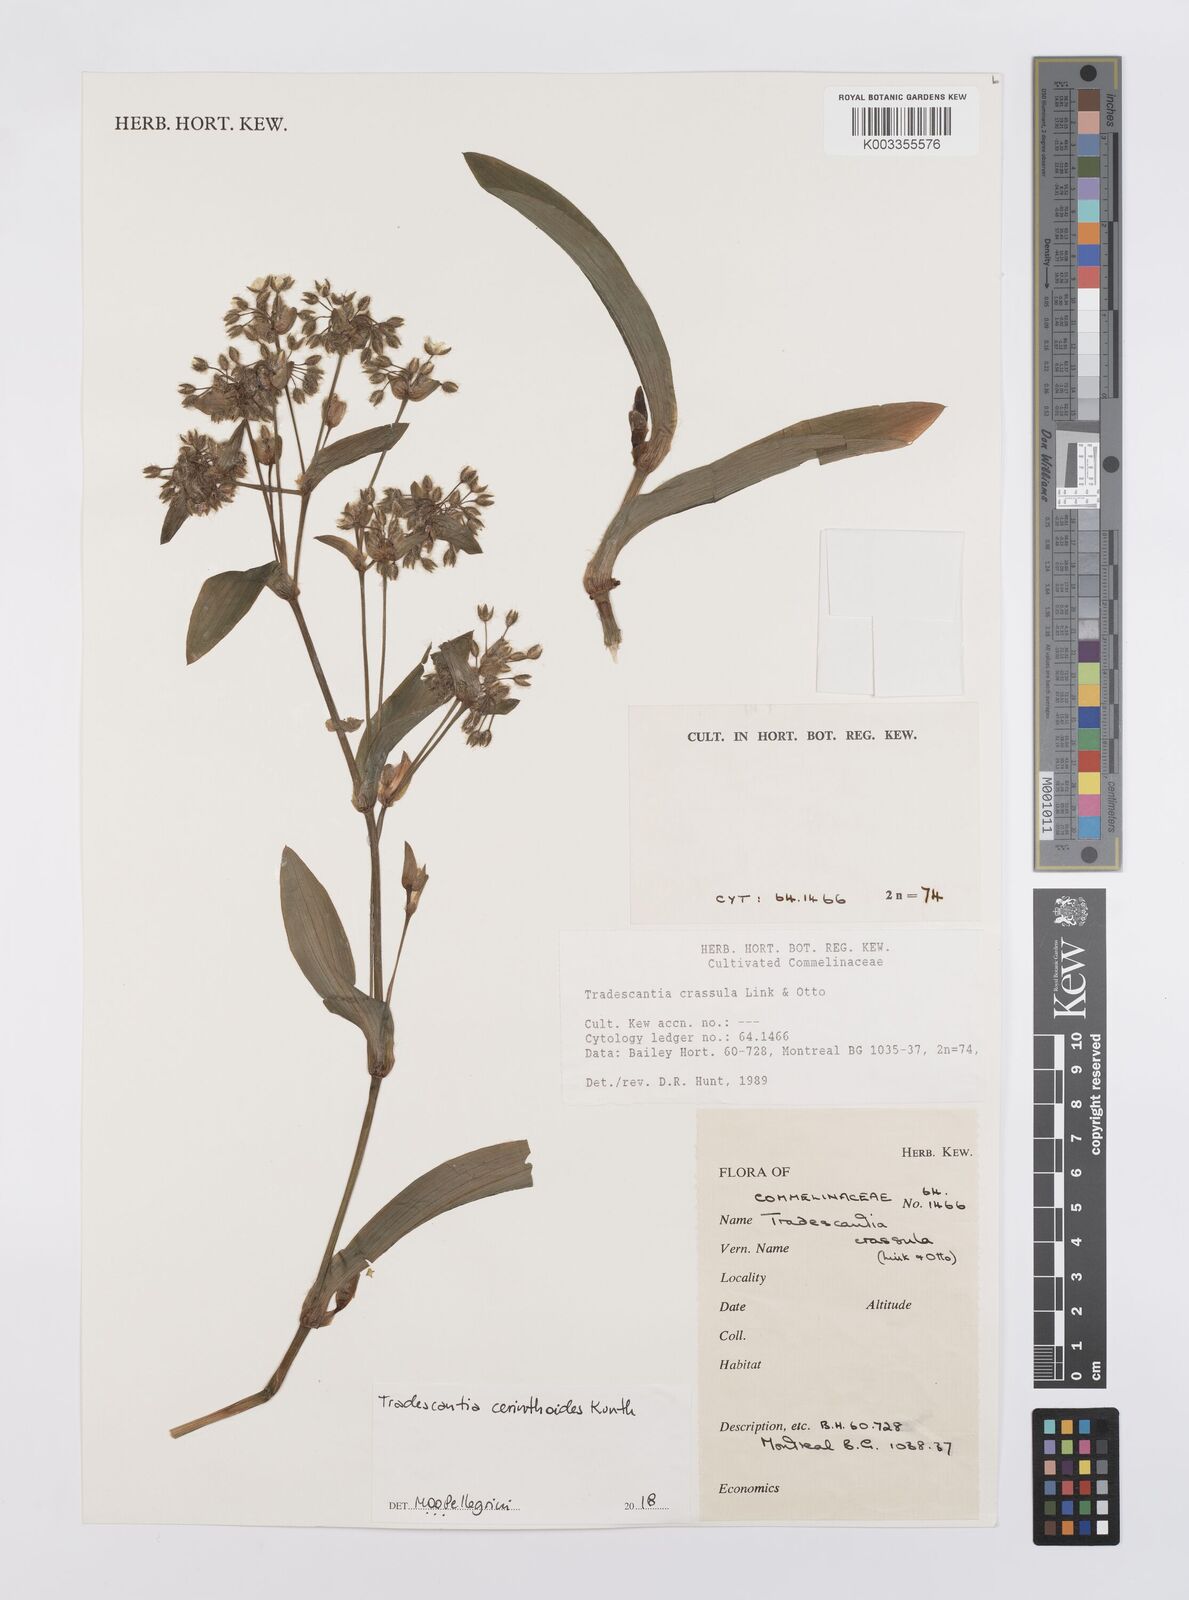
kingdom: Plantae
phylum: Tracheophyta
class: Liliopsida
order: Commelinales
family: Commelinaceae
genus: Tradescantia
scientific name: Tradescantia cerinthoides
